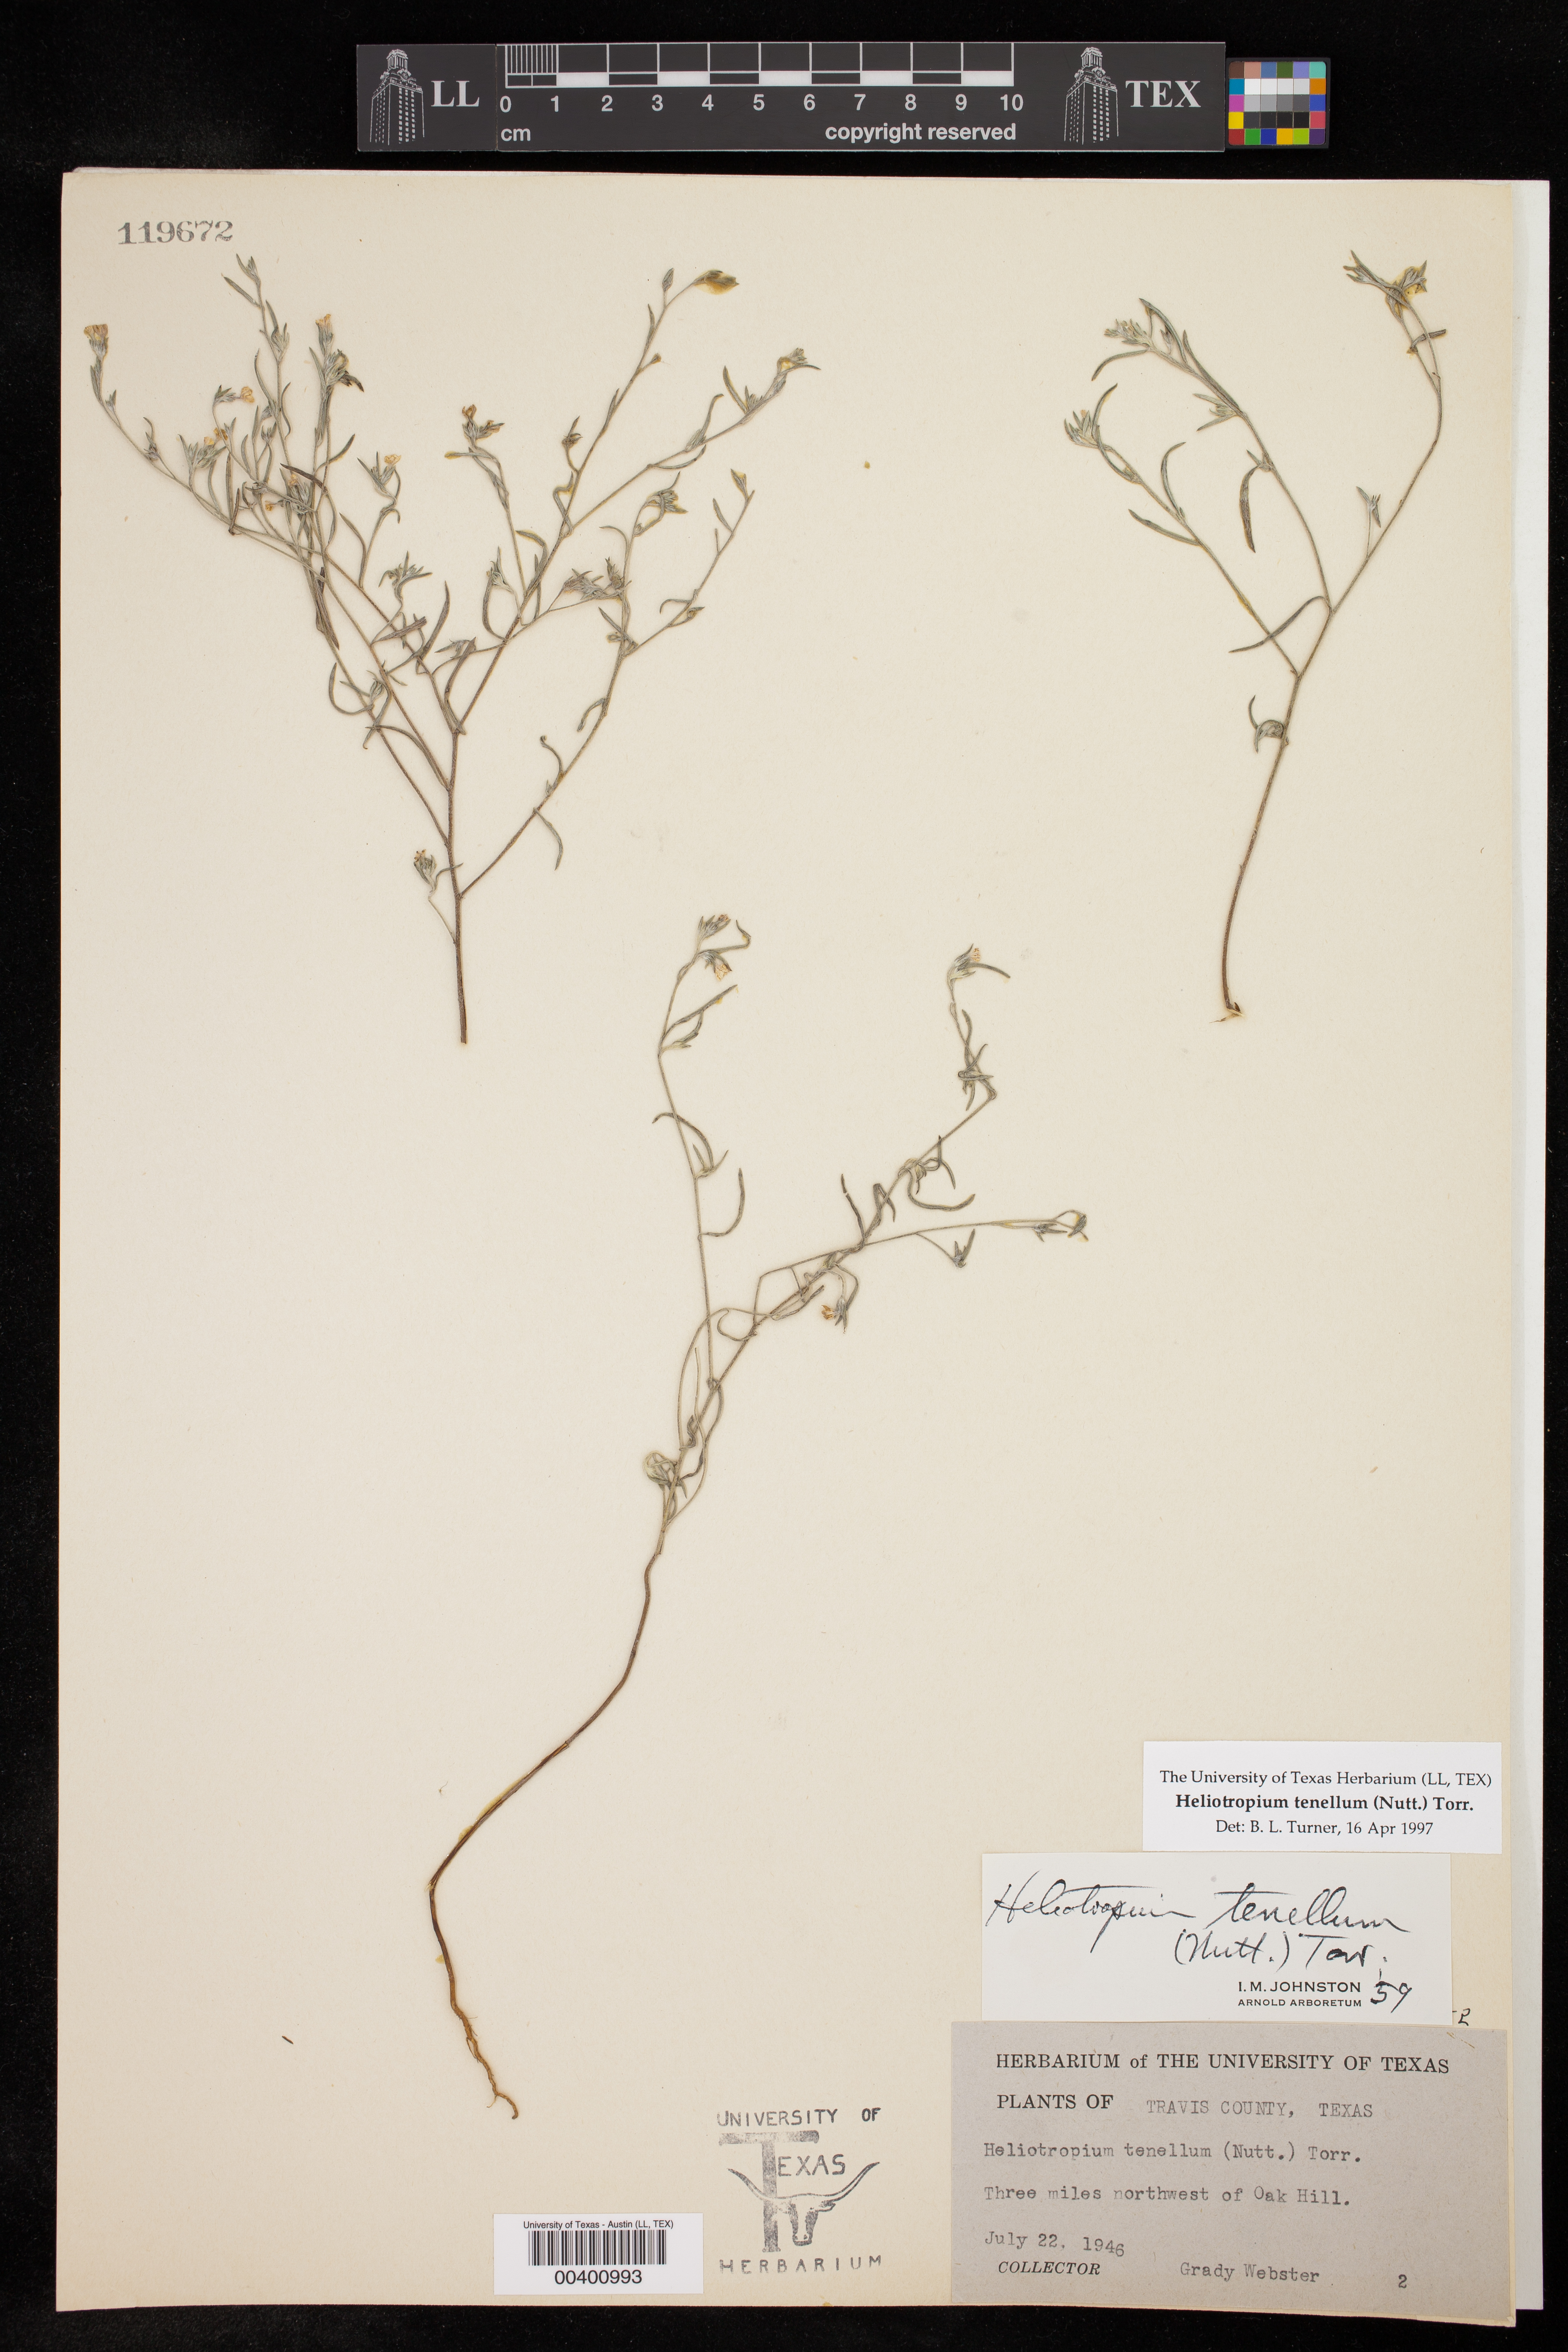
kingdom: Plantae
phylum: Tracheophyta
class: Magnoliopsida
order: Boraginales
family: Heliotropiaceae
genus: Euploca
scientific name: Euploca tenella
